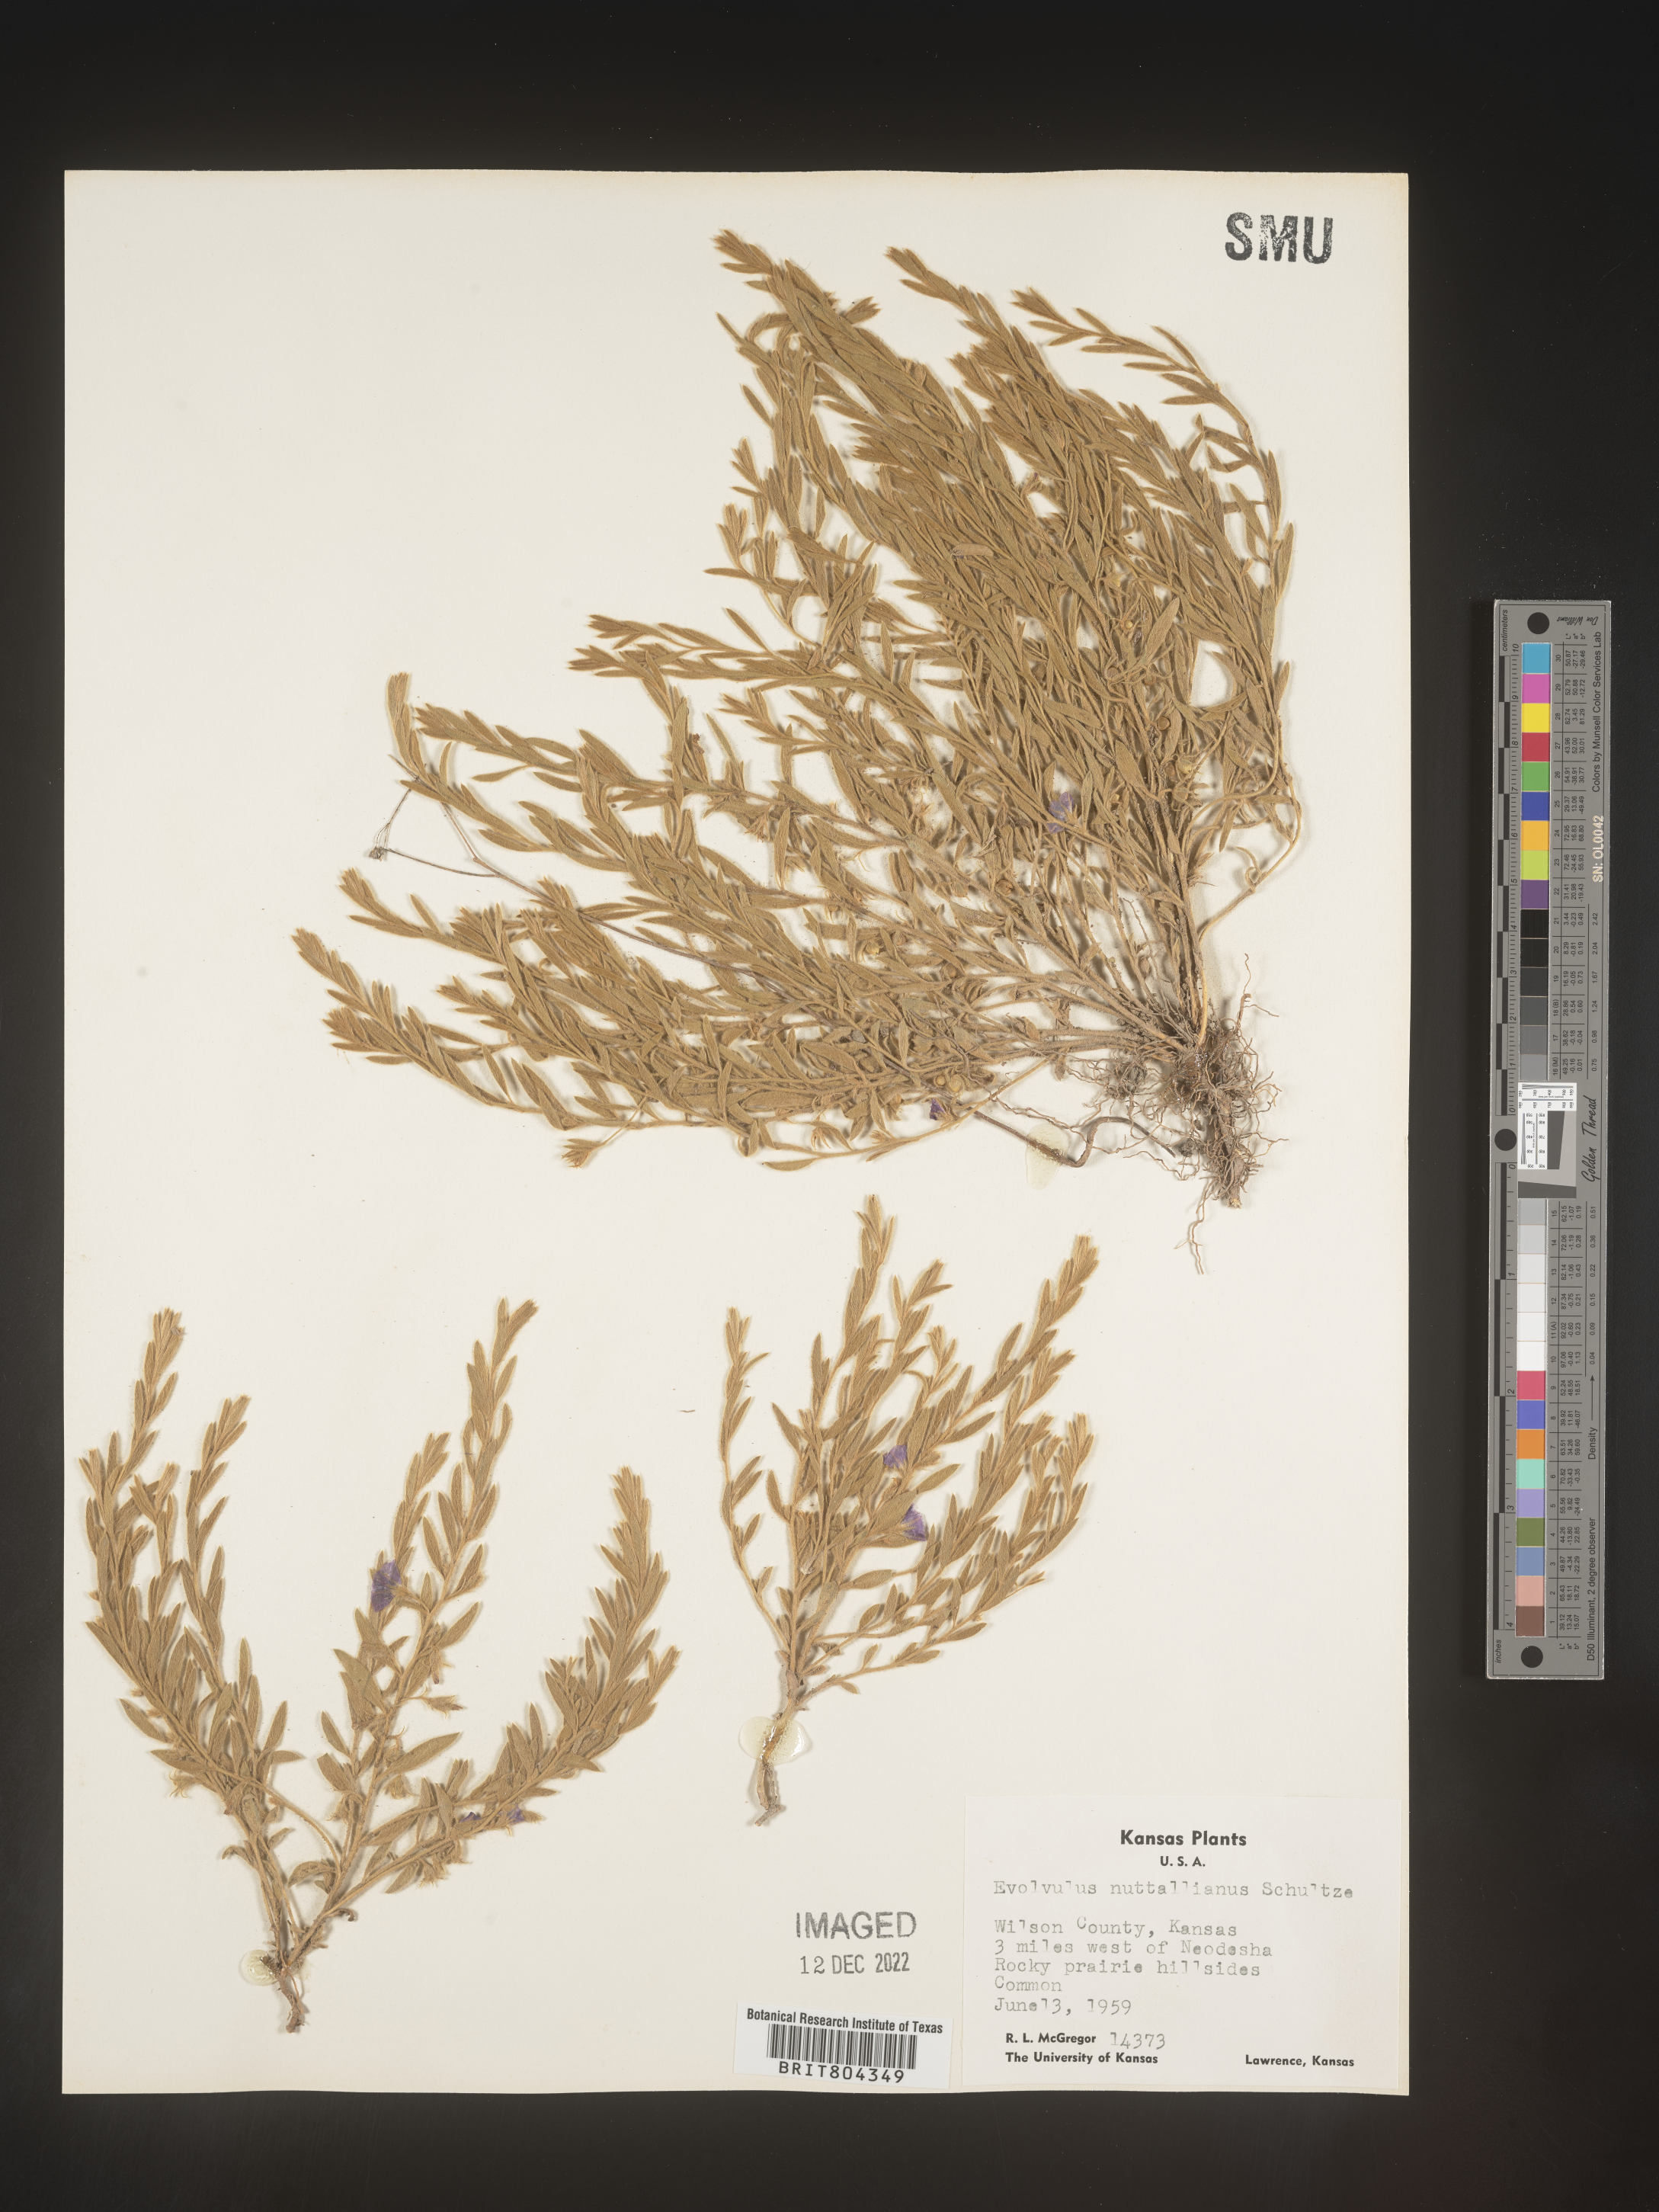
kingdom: Plantae
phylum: Tracheophyta
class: Magnoliopsida
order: Solanales
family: Convolvulaceae
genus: Evolvulus
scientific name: Evolvulus nuttallianus
